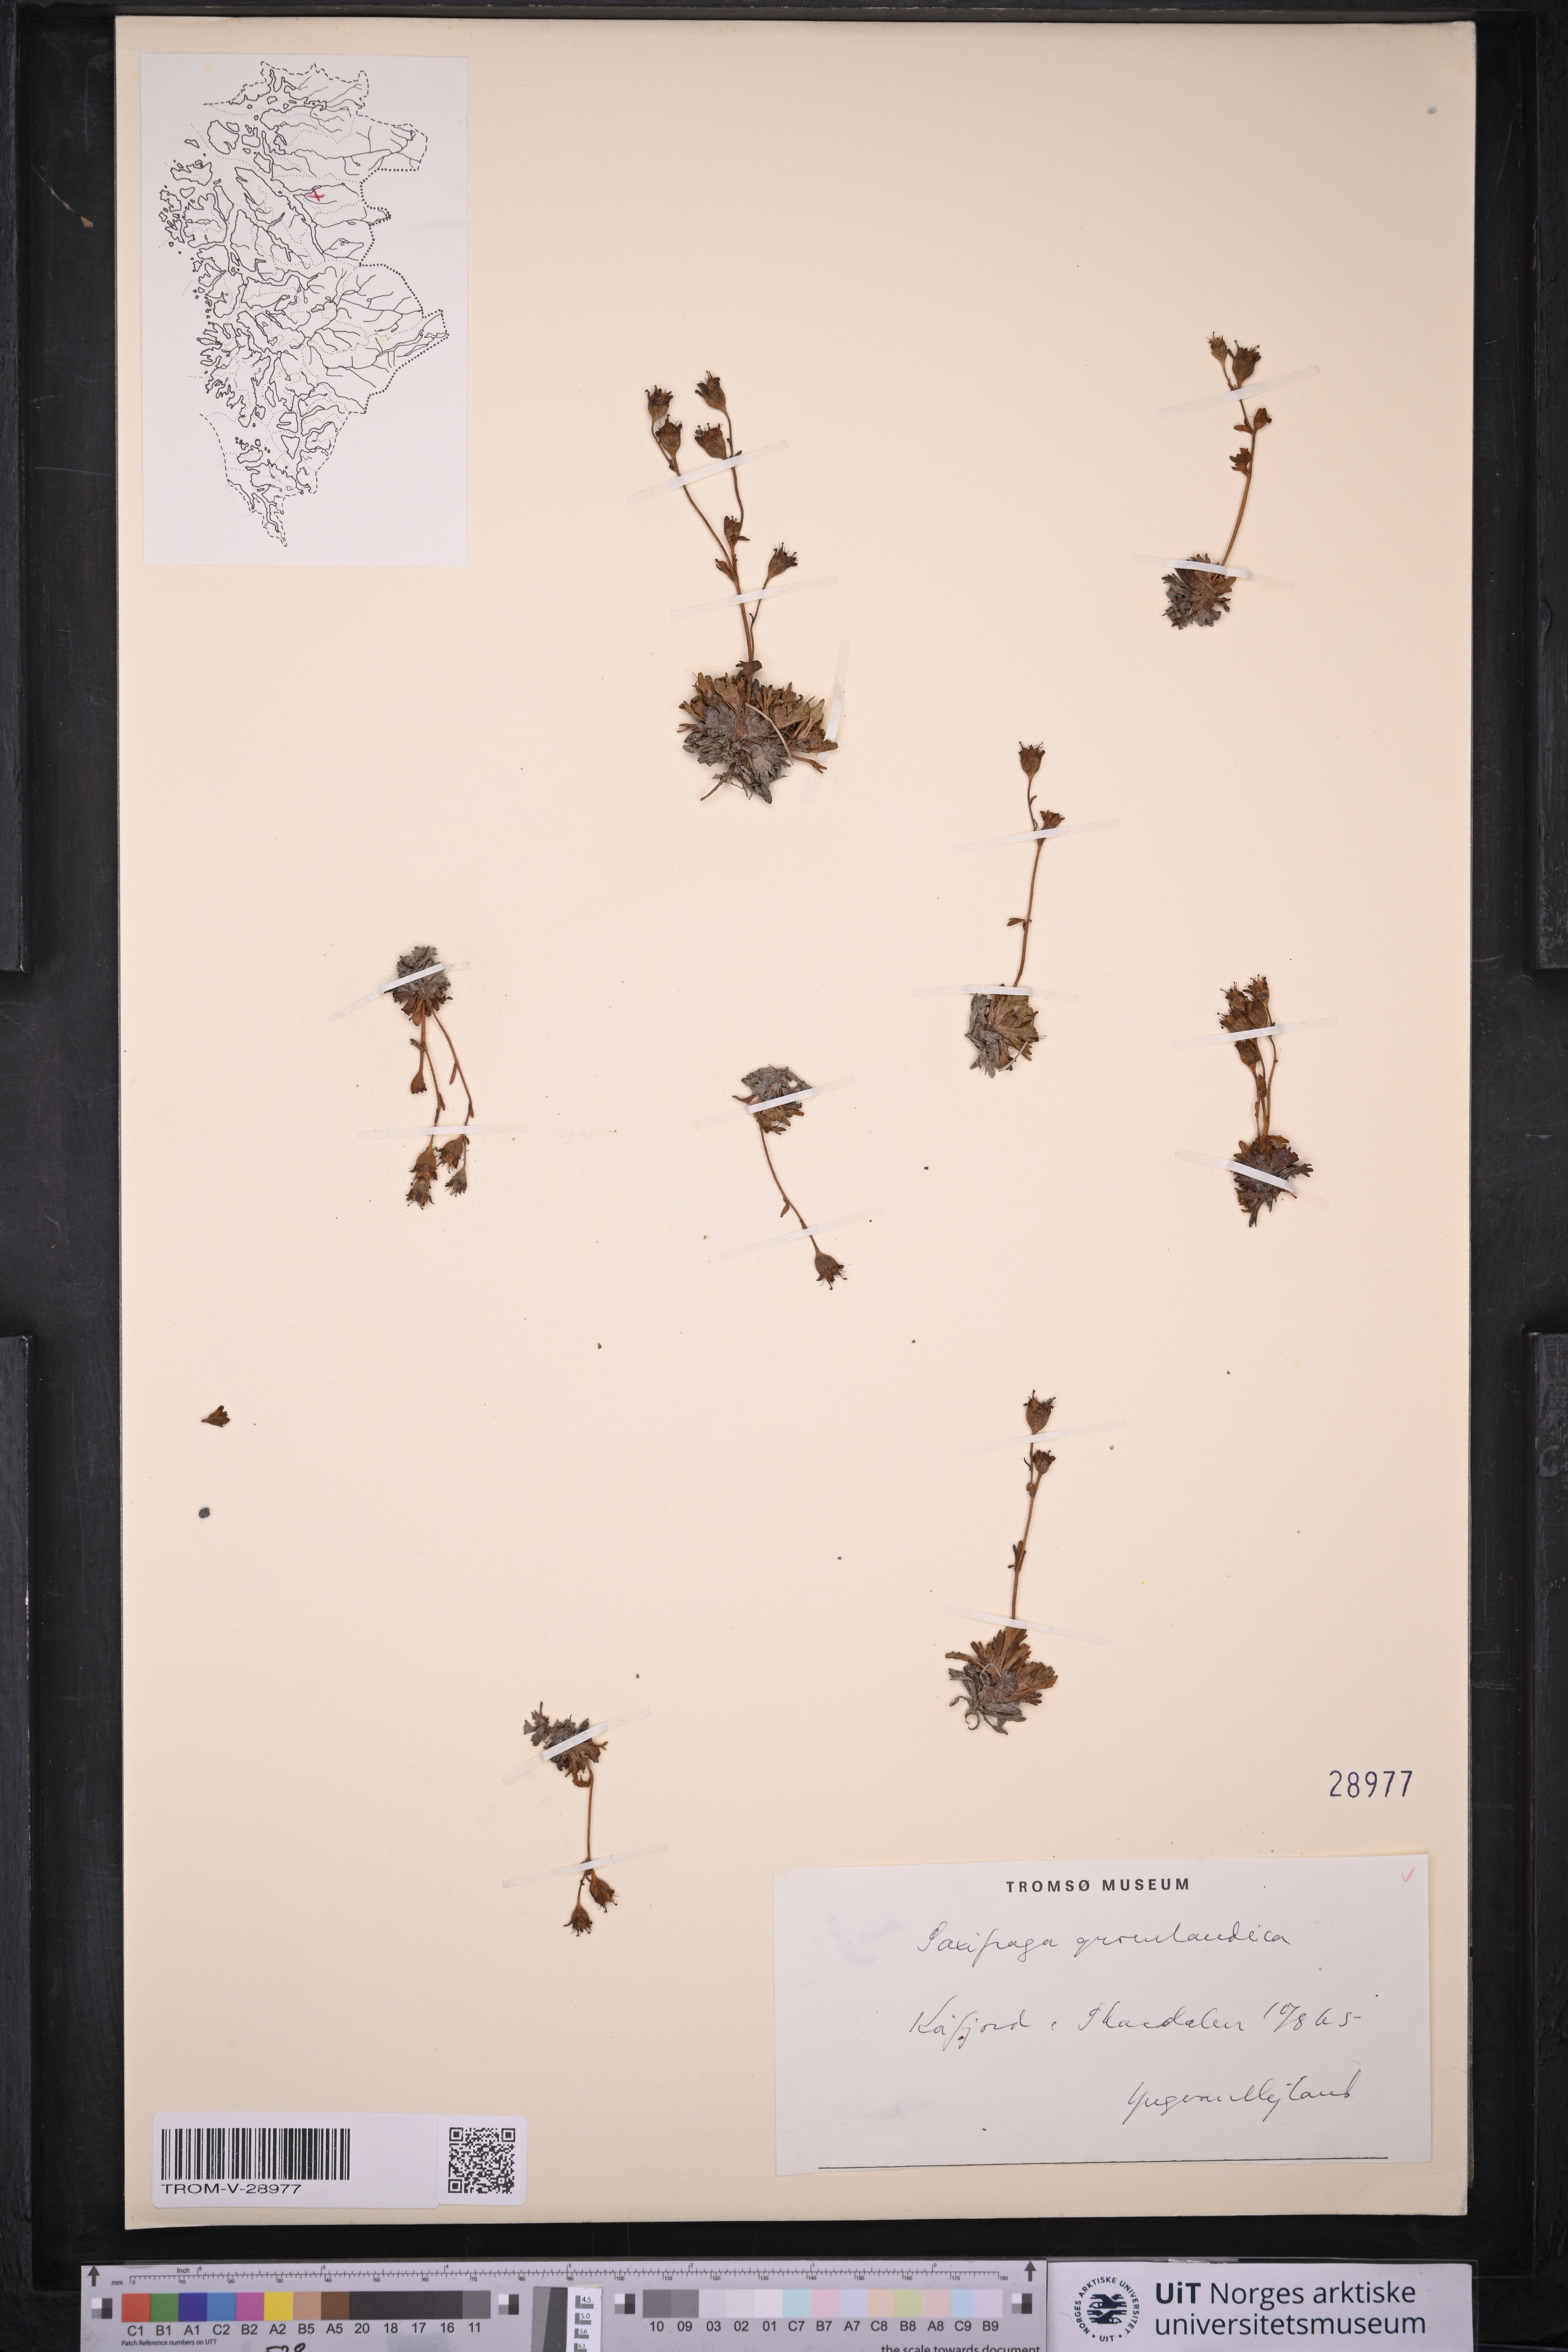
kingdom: Plantae
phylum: Tracheophyta
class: Magnoliopsida
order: Saxifragales
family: Saxifragaceae
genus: Saxifraga
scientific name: Saxifraga cespitosa
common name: Tufted saxifrage
